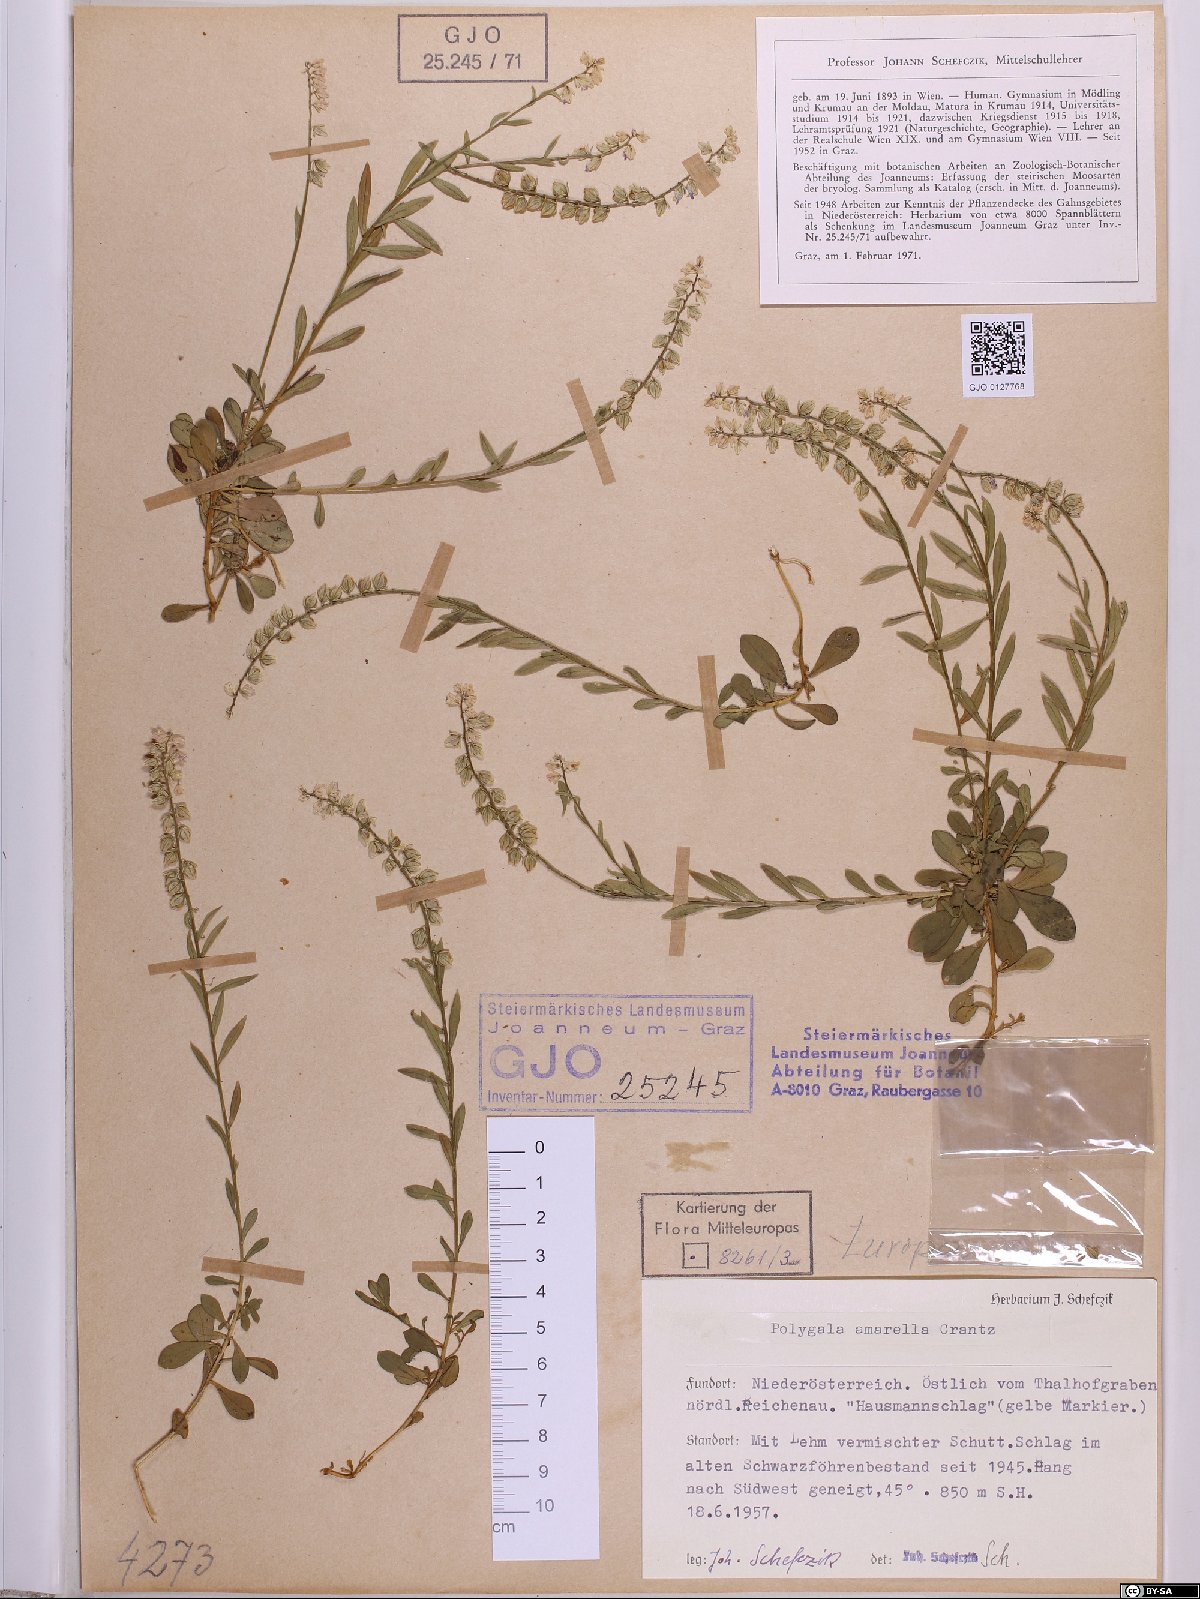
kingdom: Plantae
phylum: Tracheophyta
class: Magnoliopsida
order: Fabales
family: Polygalaceae
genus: Polygala
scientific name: Polygala amarella
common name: Dwarf milkwort
